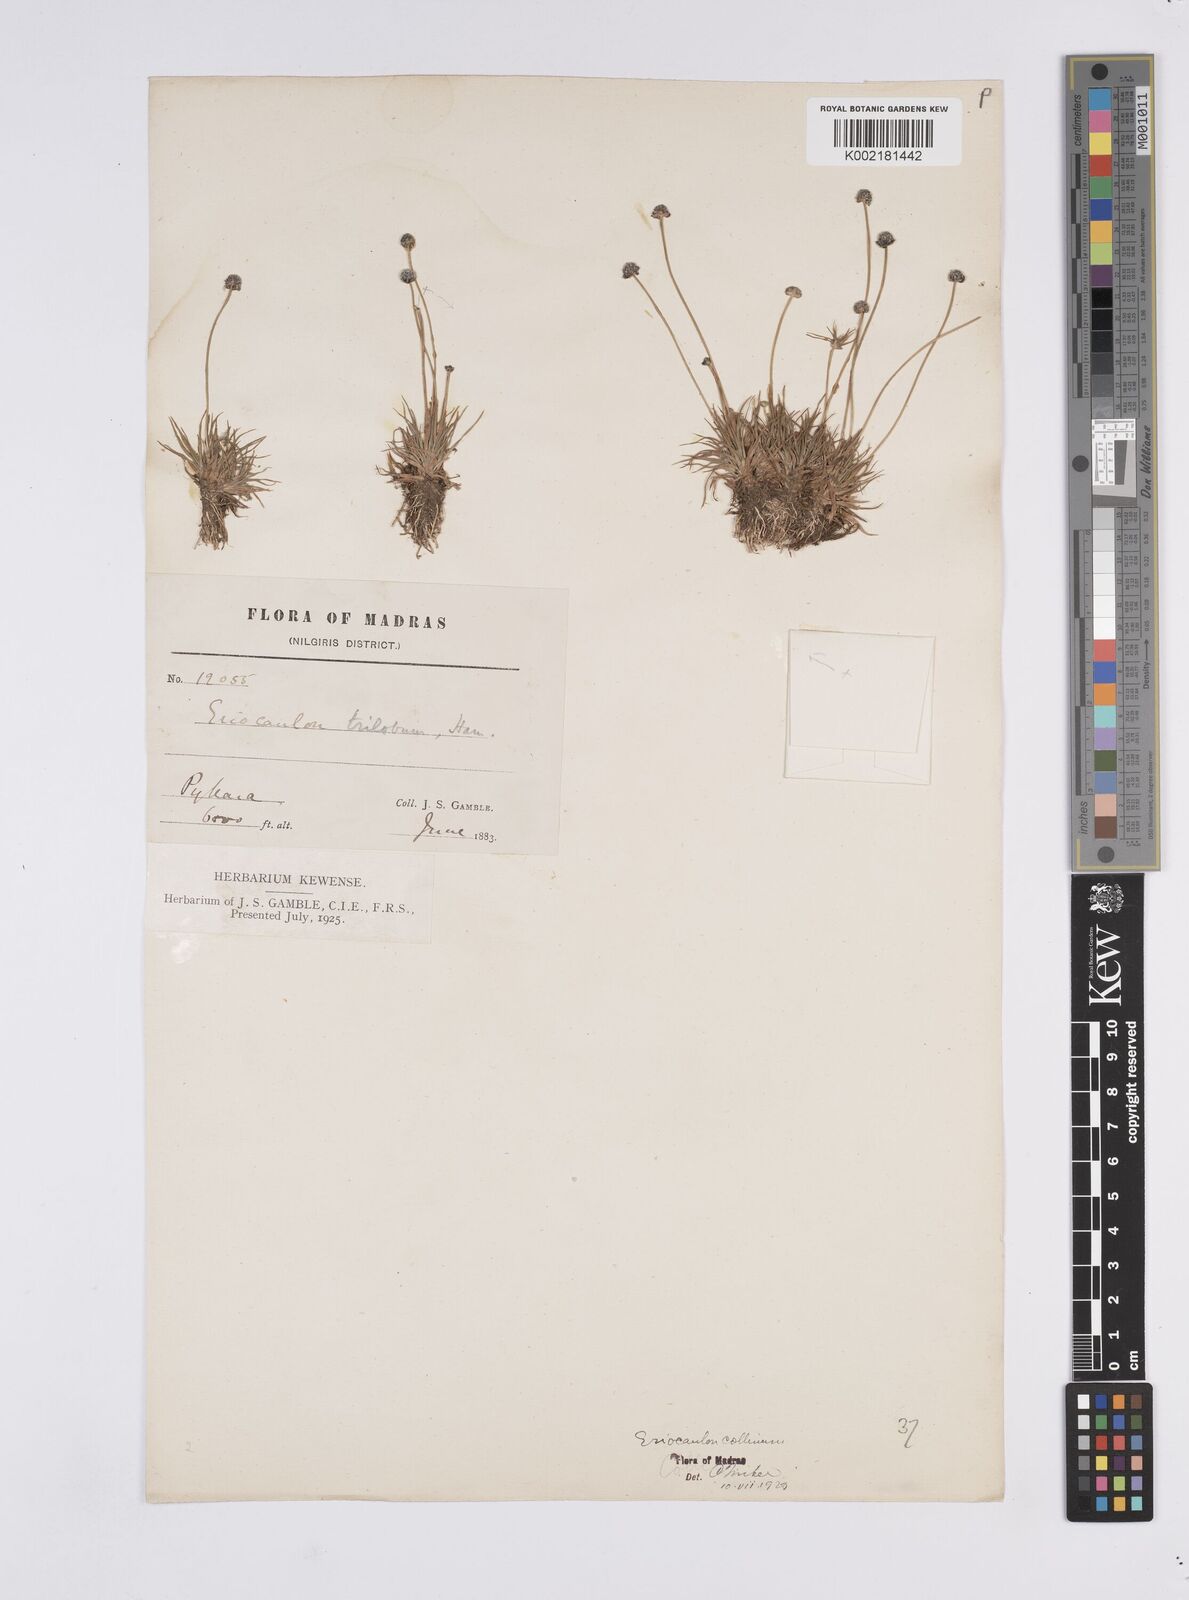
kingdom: Plantae
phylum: Tracheophyta
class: Liliopsida
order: Poales
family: Eriocaulaceae
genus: Eriocaulon
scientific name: Eriocaulon odoratum
